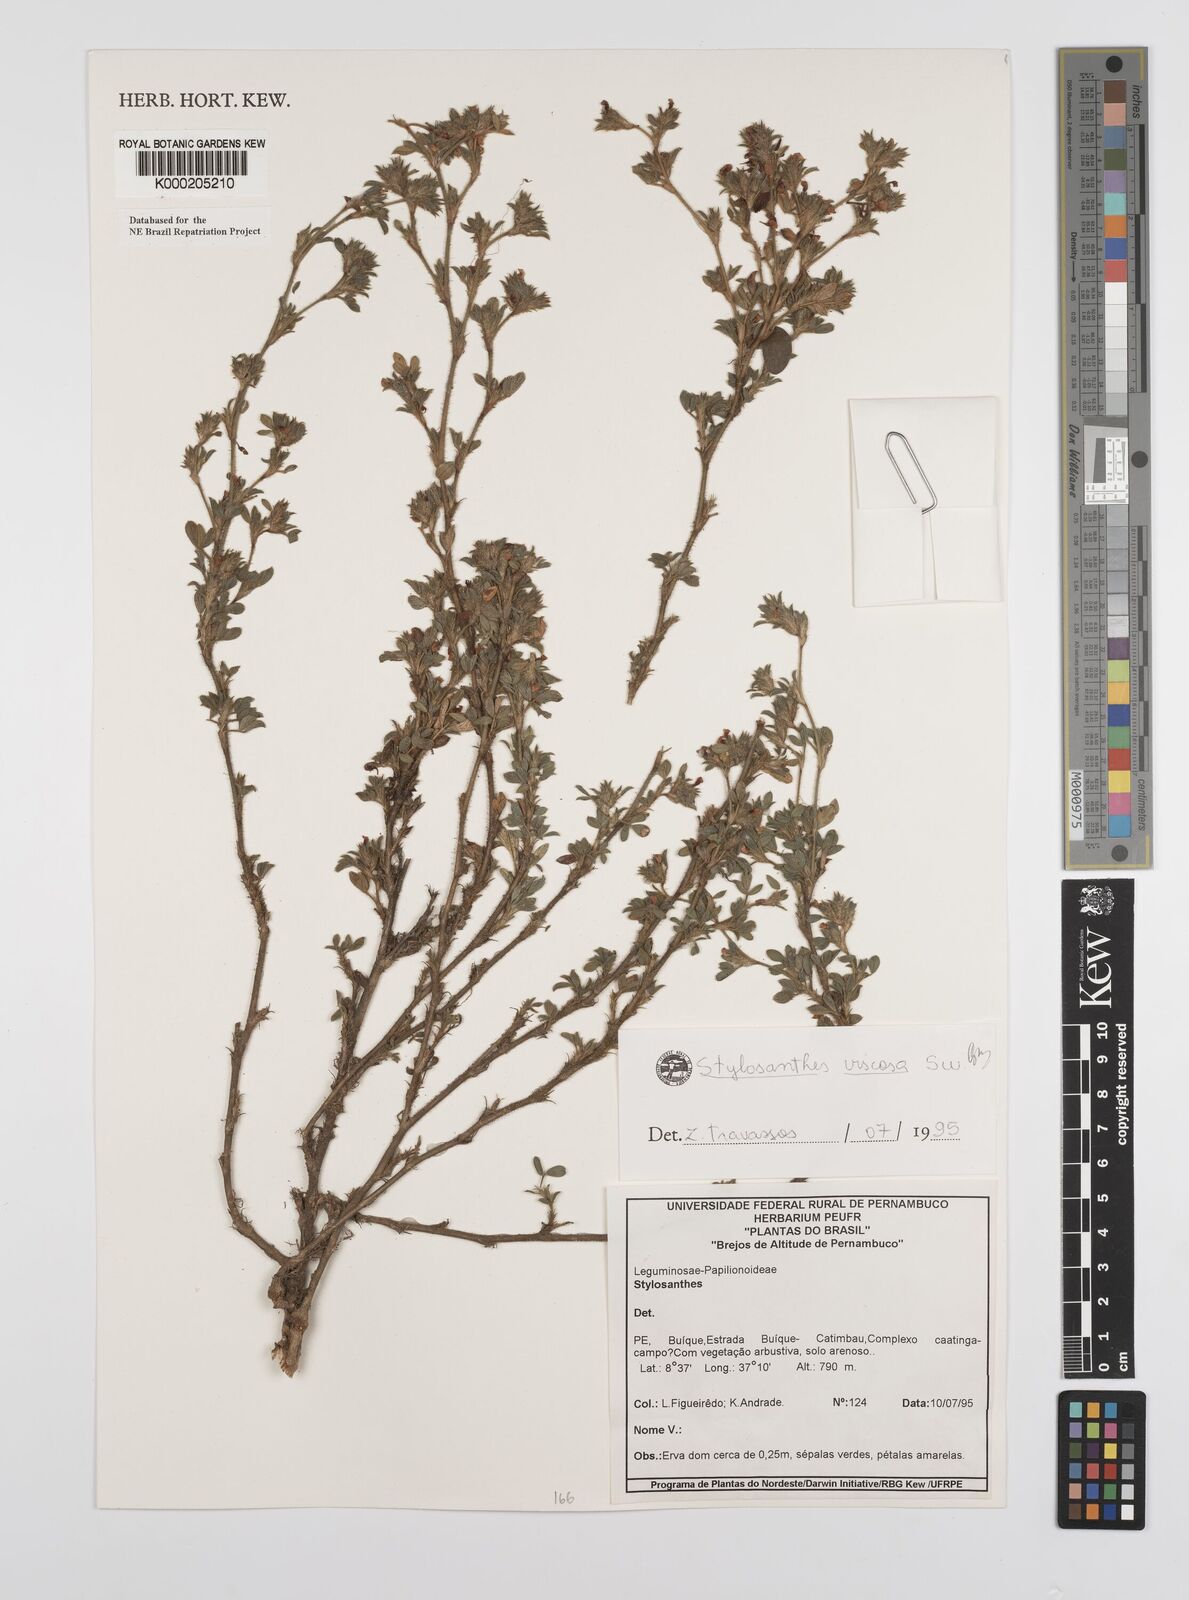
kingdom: Plantae
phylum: Tracheophyta
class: Magnoliopsida
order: Fabales
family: Fabaceae
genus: Stylosanthes
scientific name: Stylosanthes viscosa
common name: Viscid pencil-flower
